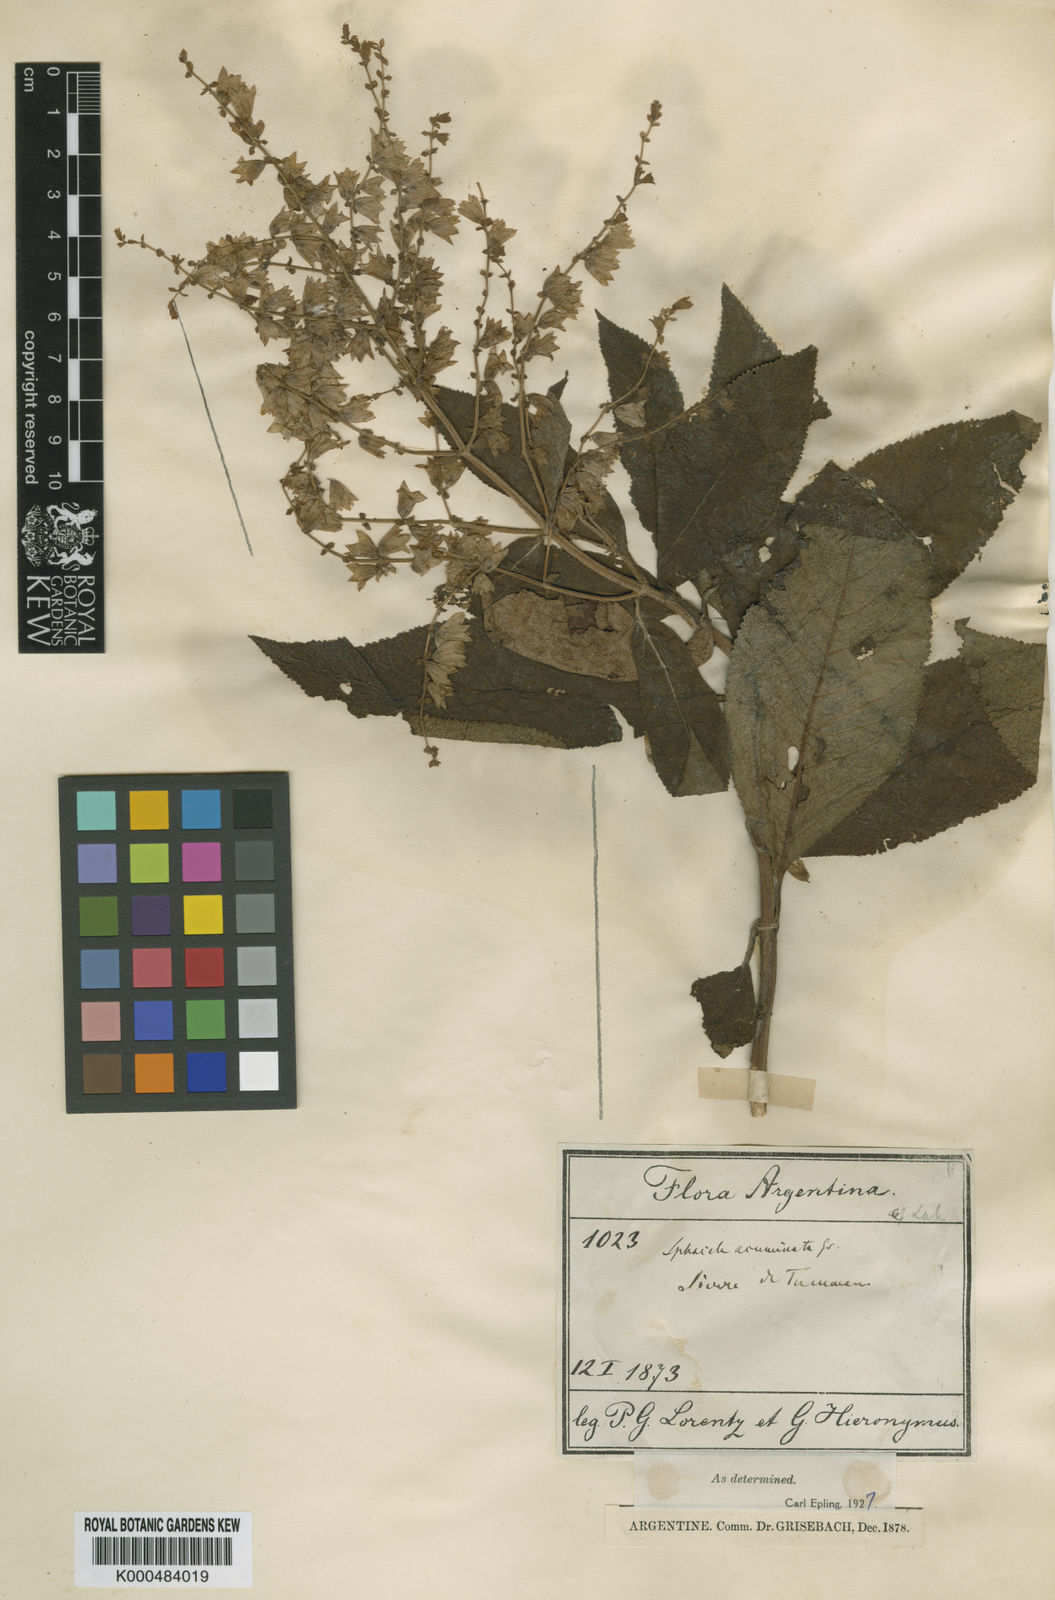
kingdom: Plantae
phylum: Tracheophyta
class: Magnoliopsida
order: Lamiales
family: Lamiaceae
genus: Lepechinia
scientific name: Lepechinia graveolens
